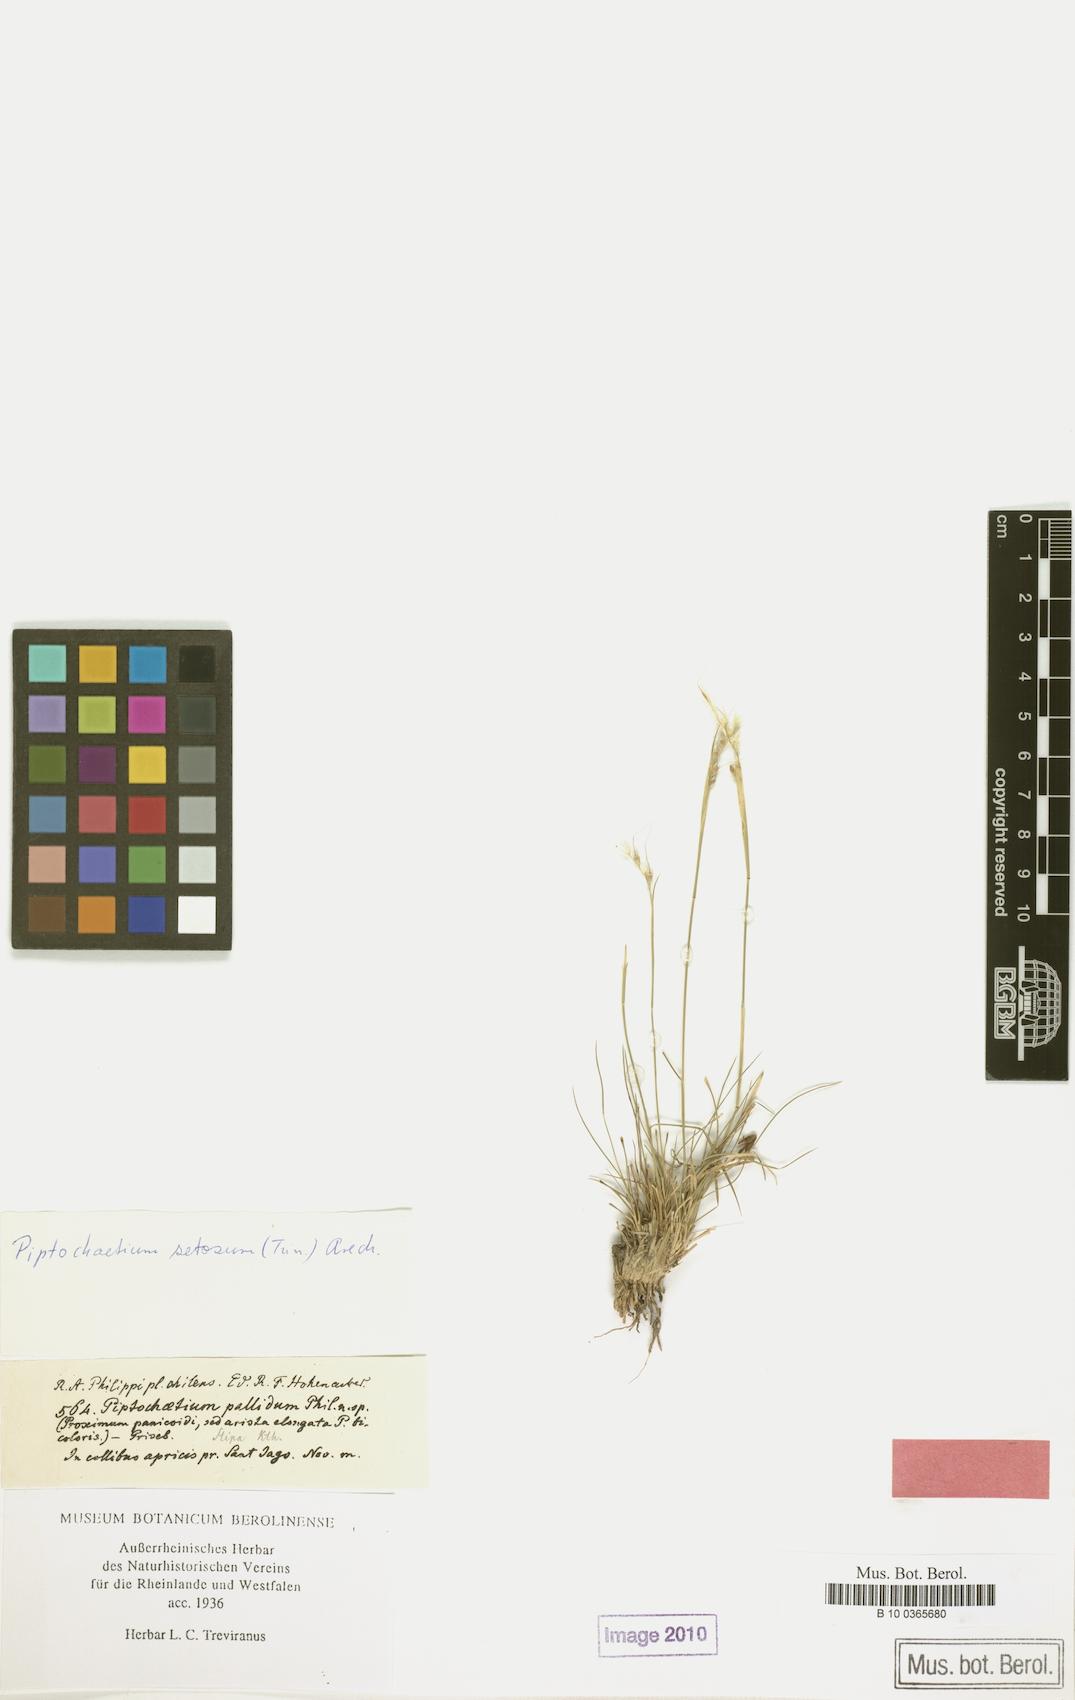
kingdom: Plantae
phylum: Tracheophyta
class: Liliopsida
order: Poales
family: Poaceae
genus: Piptochaetium
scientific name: Piptochaetium stipoides
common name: Purple speargrass
